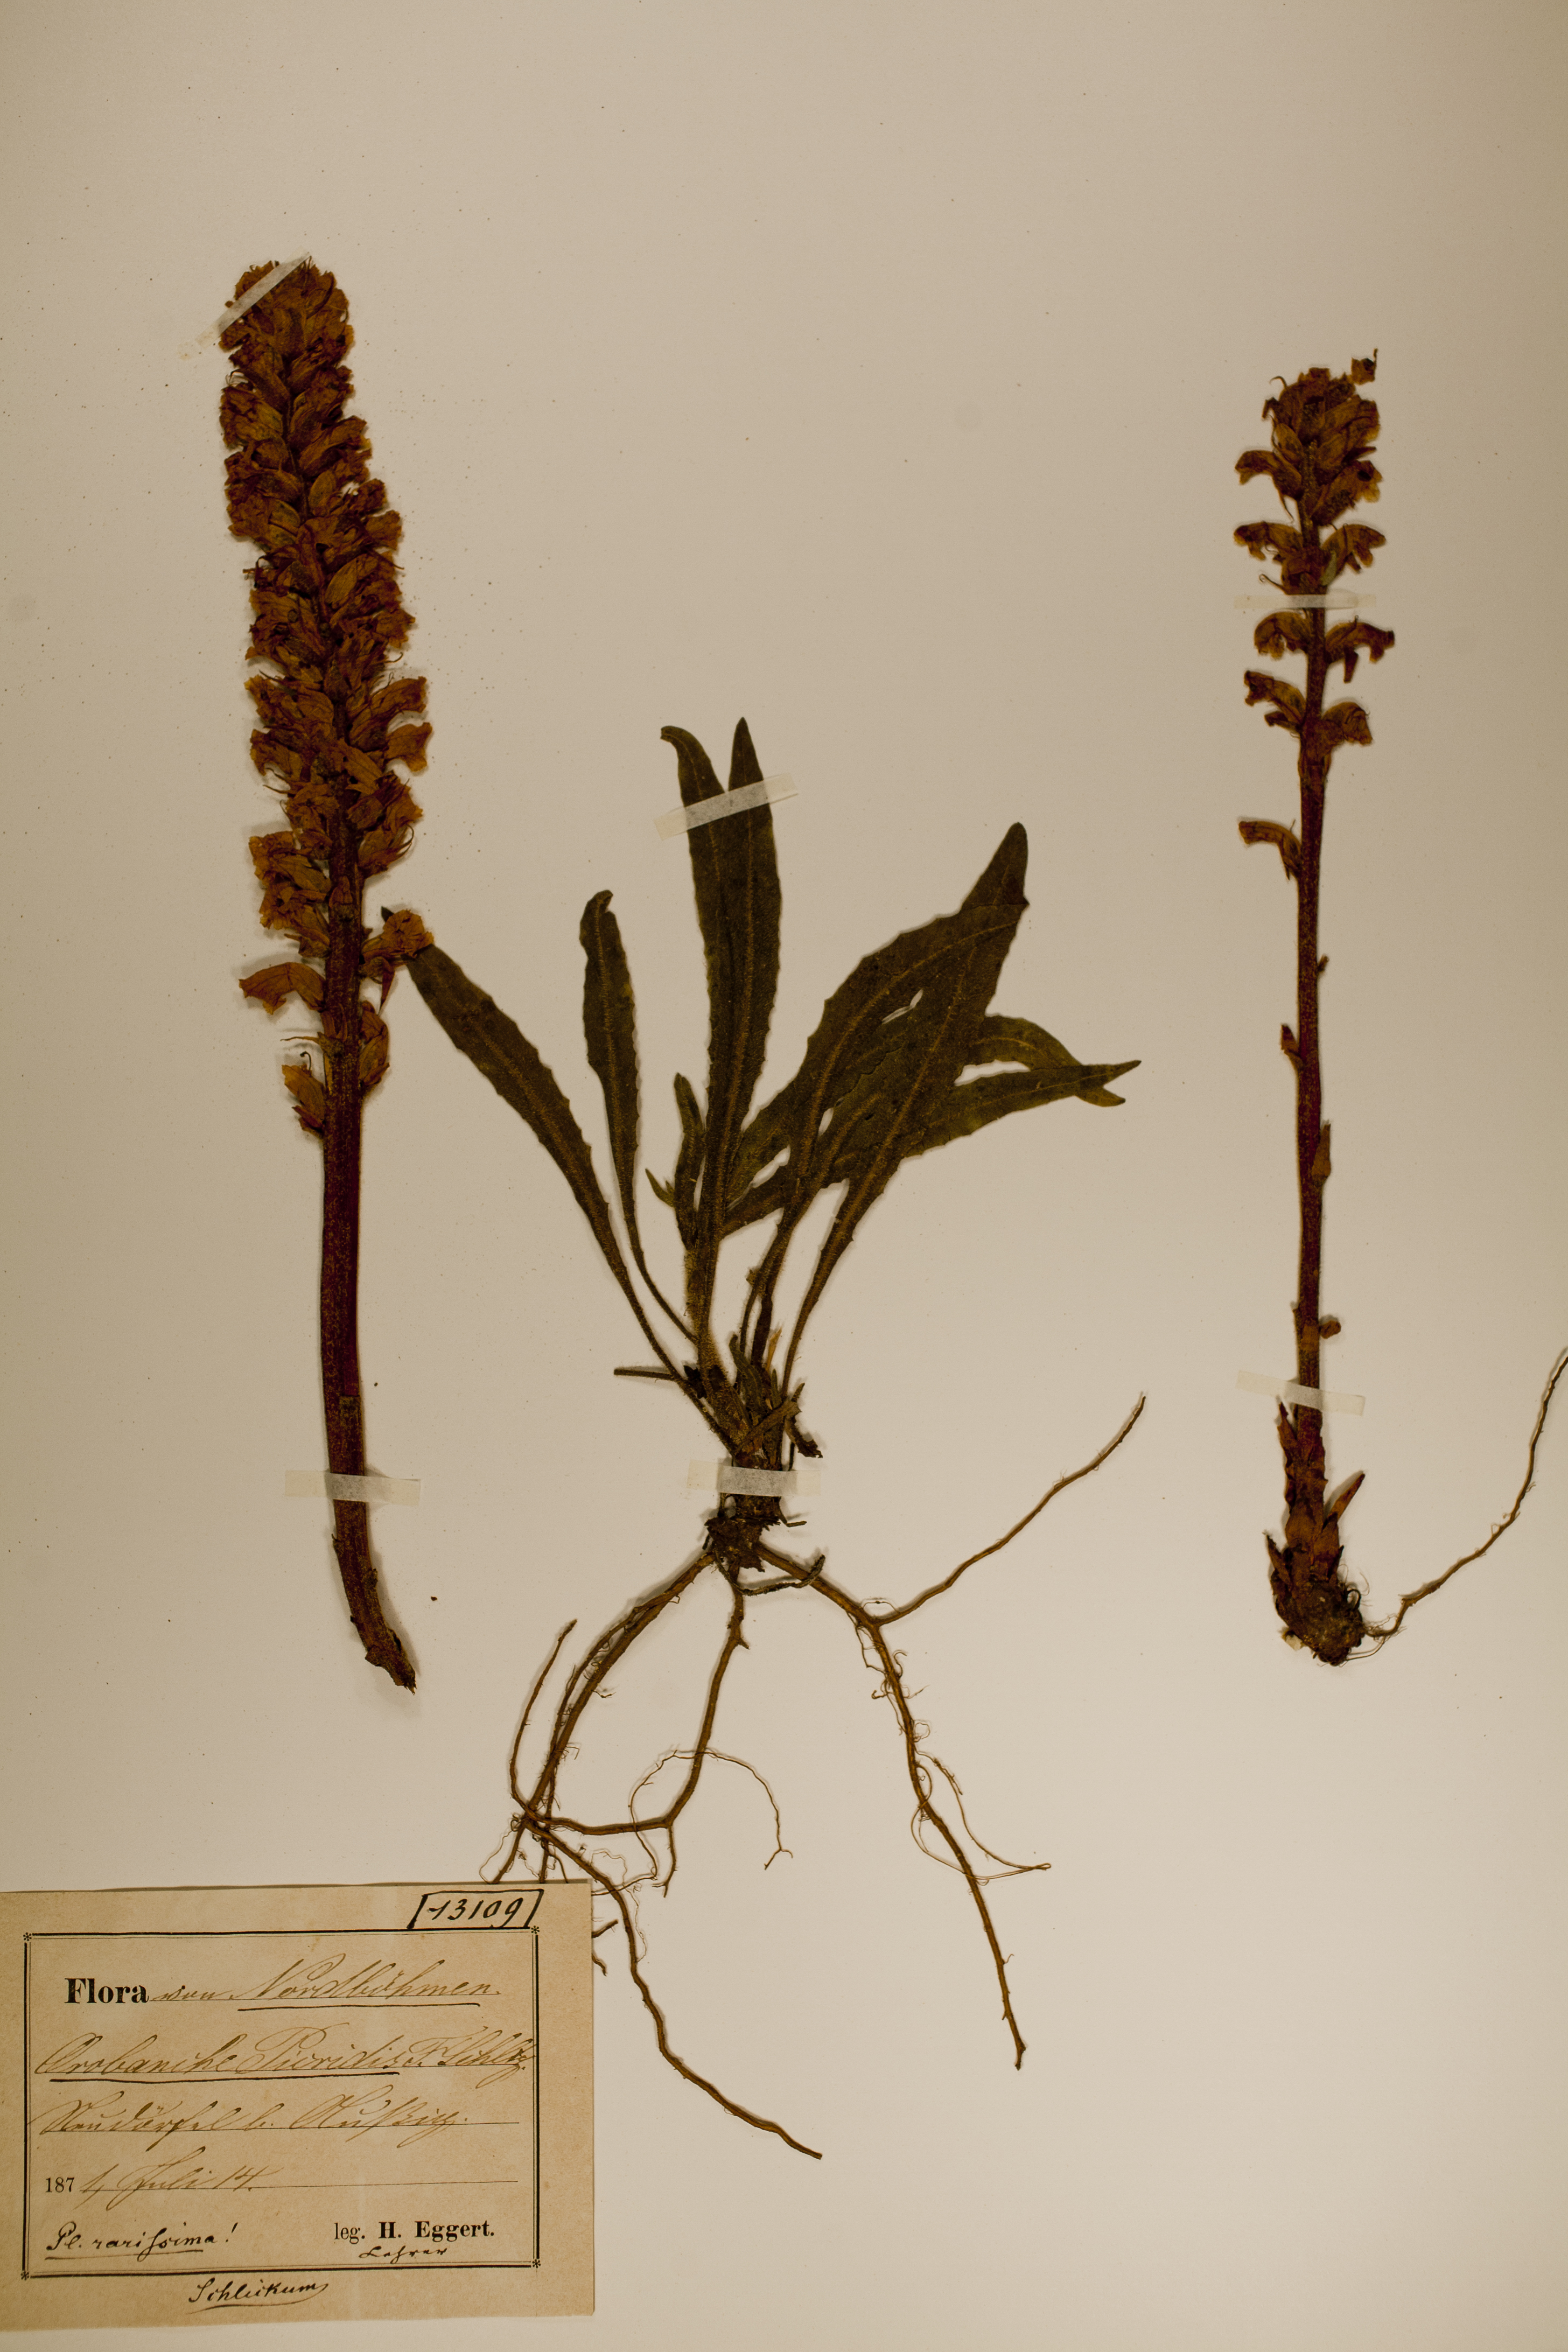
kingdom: Plantae
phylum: Tracheophyta
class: Magnoliopsida
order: Lamiales
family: Orobanchaceae
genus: Orobanche
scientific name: Orobanche picridis
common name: Oxtongue broomrape
